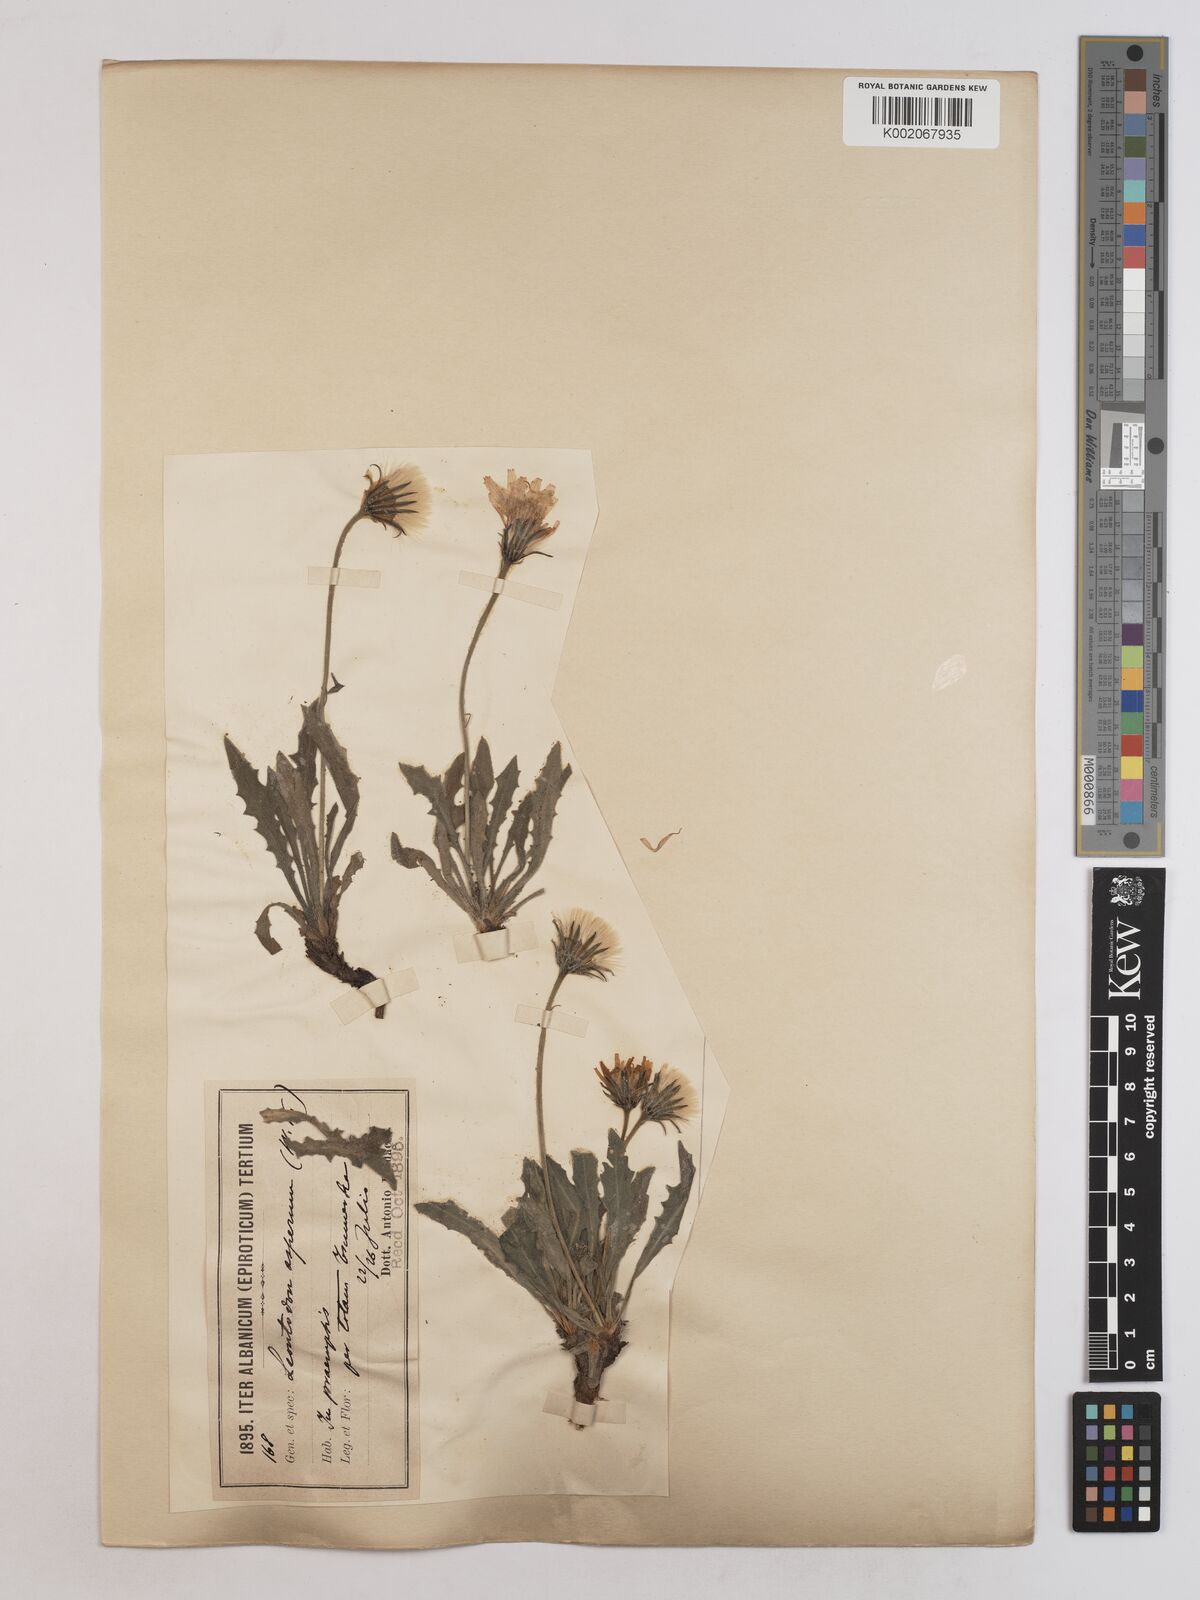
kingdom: Plantae
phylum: Tracheophyta
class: Magnoliopsida
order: Asterales
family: Asteraceae
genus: Leontodon
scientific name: Leontodon crispus
